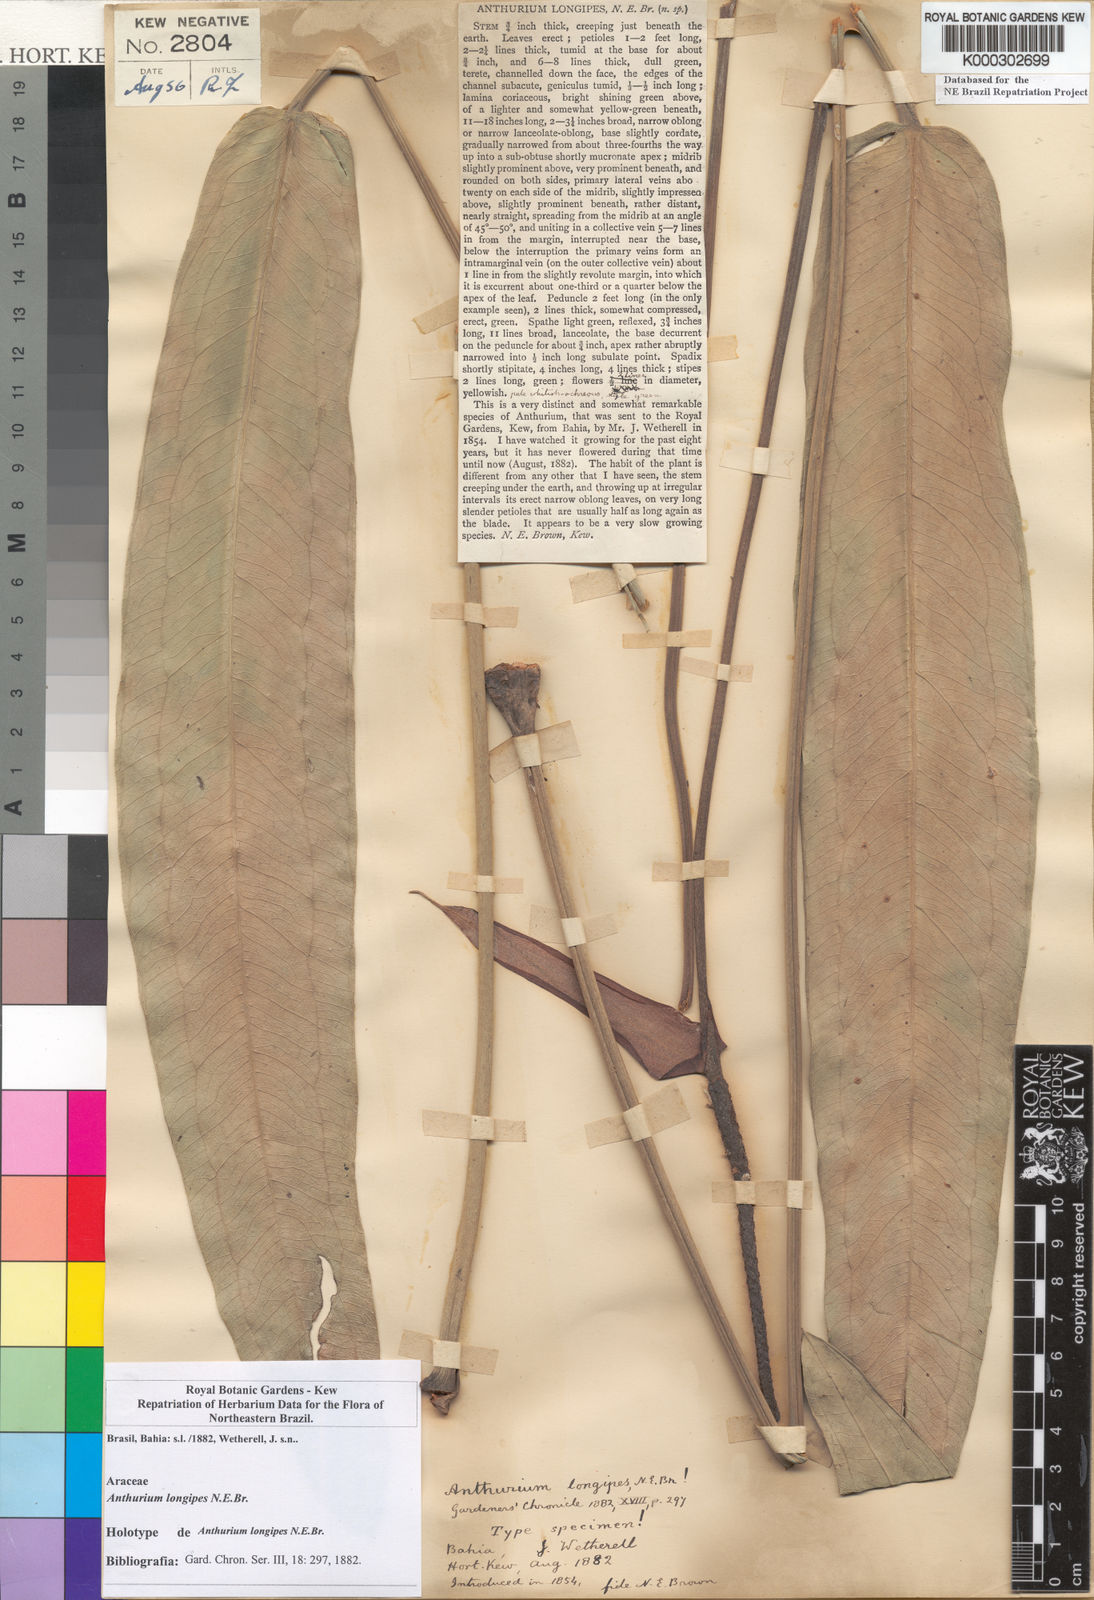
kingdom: Plantae
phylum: Tracheophyta
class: Liliopsida
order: Alismatales
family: Araceae
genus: Anthurium
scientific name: Anthurium longipes
